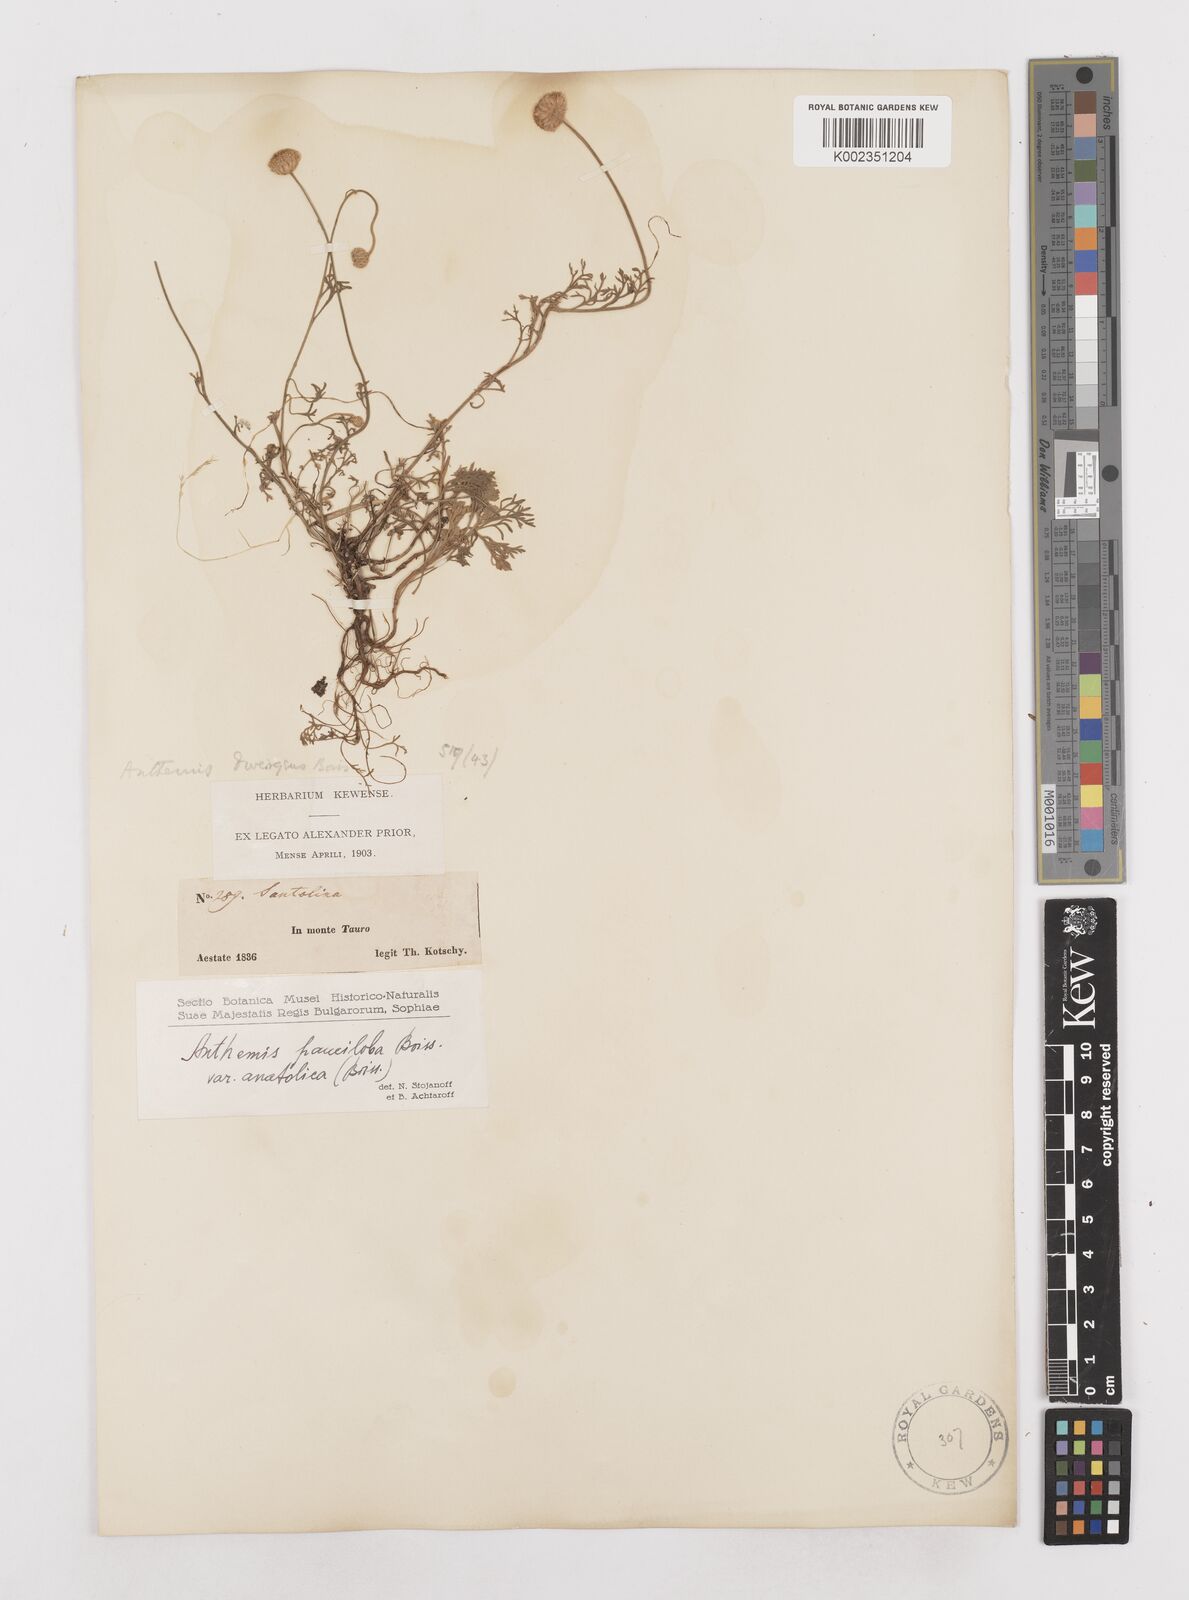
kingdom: Plantae
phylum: Tracheophyta
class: Magnoliopsida
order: Asterales
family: Asteraceae
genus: Anthemis
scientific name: Anthemis cretica
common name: Mountain dog-daisy
